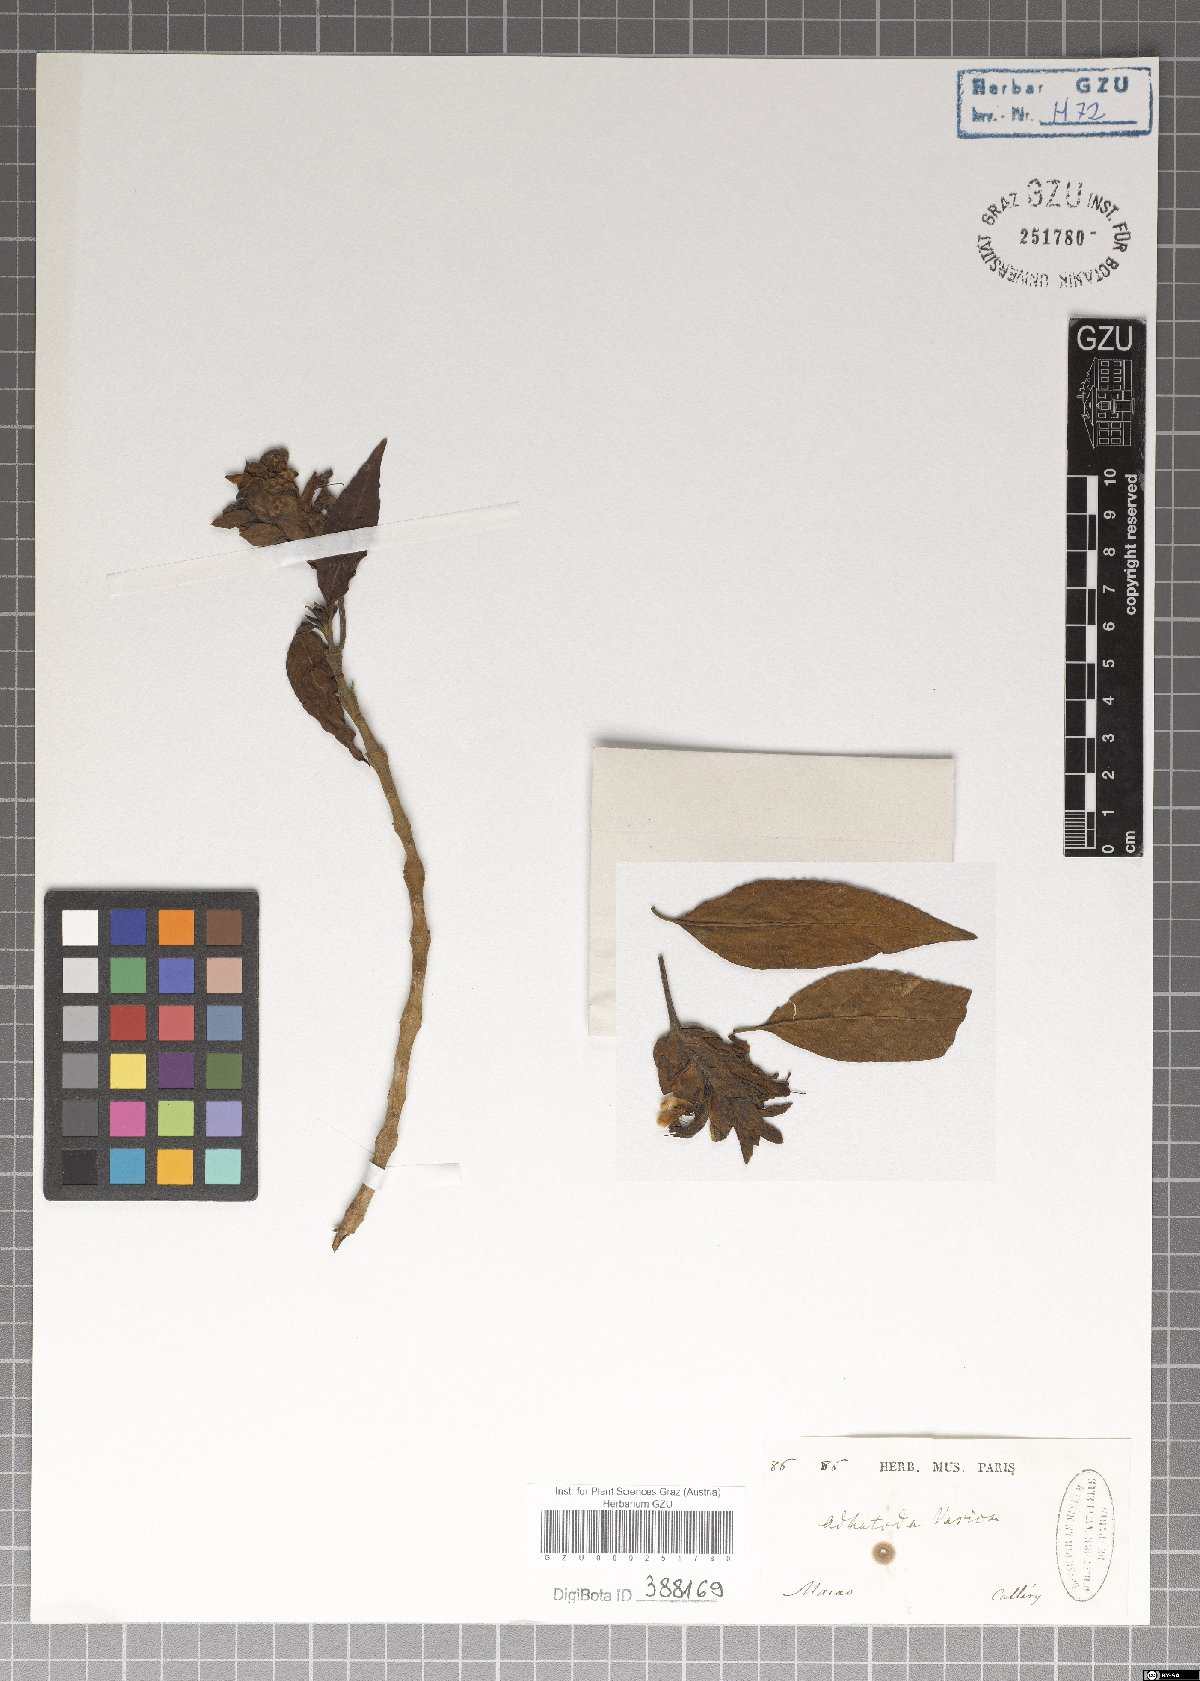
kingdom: Plantae
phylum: Tracheophyta
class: Magnoliopsida
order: Lamiales
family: Acanthaceae
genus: Justicia
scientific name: Justicia adhatoda
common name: Malabar nut
